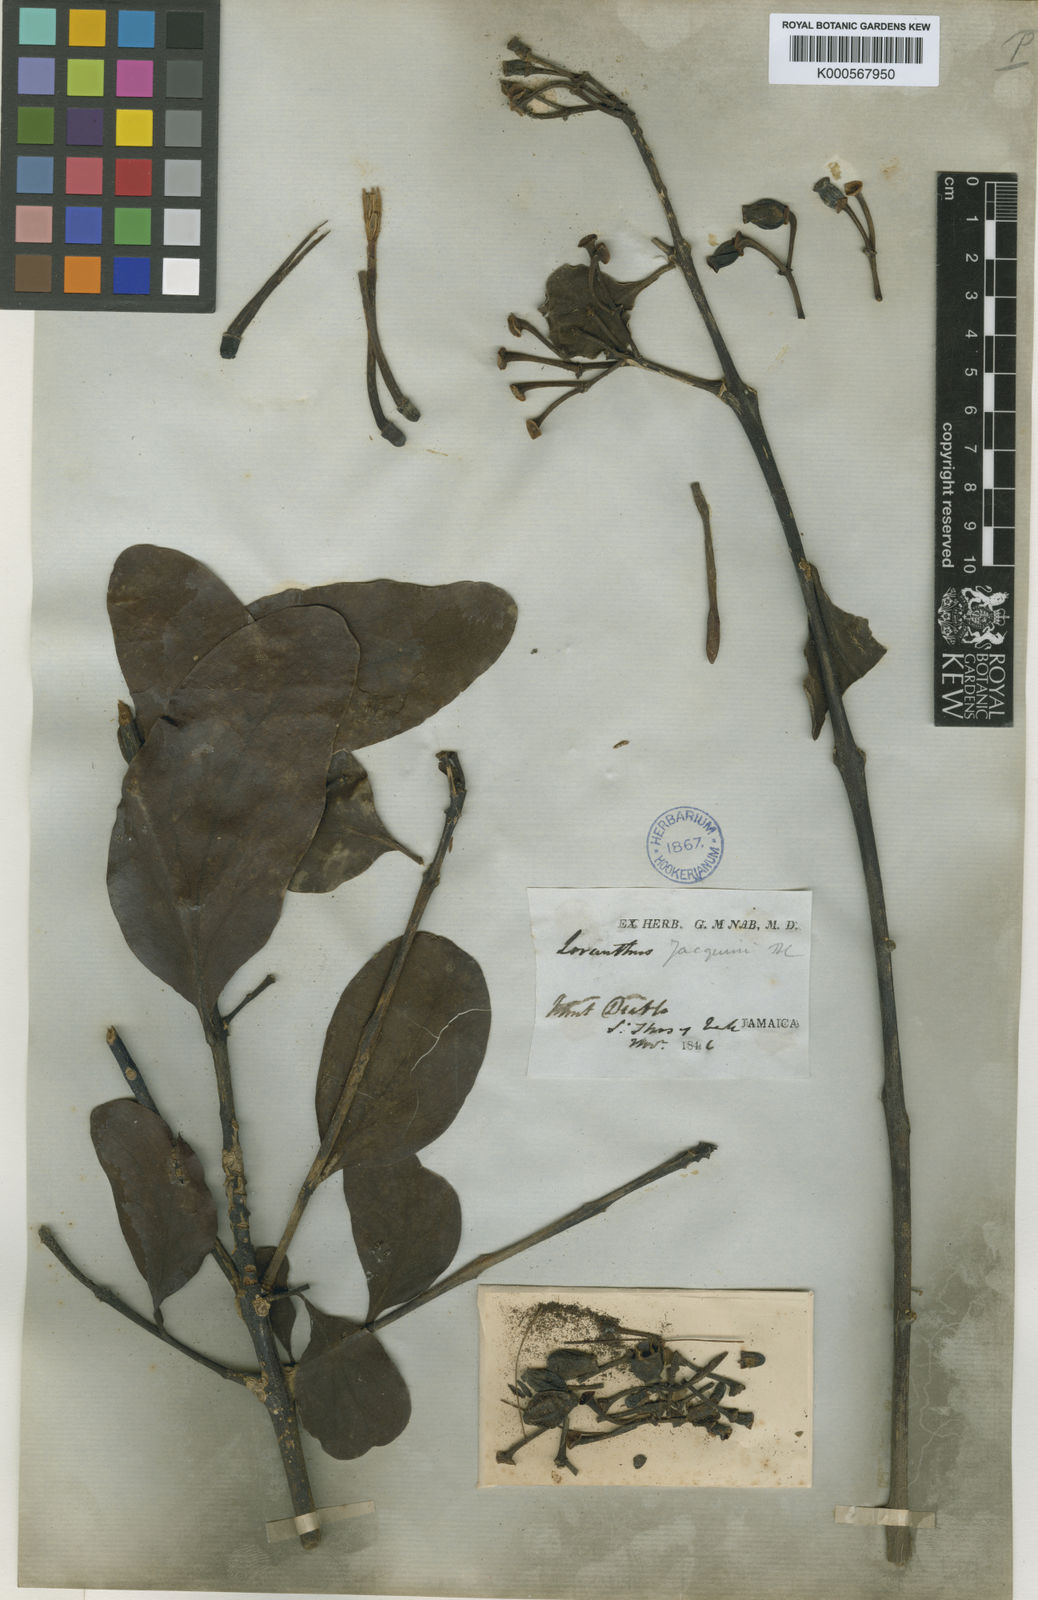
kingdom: Plantae
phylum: Tracheophyta
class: Magnoliopsida
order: Santalales
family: Loranthaceae
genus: Psittacanthus
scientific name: Psittacanthus martinicensis
